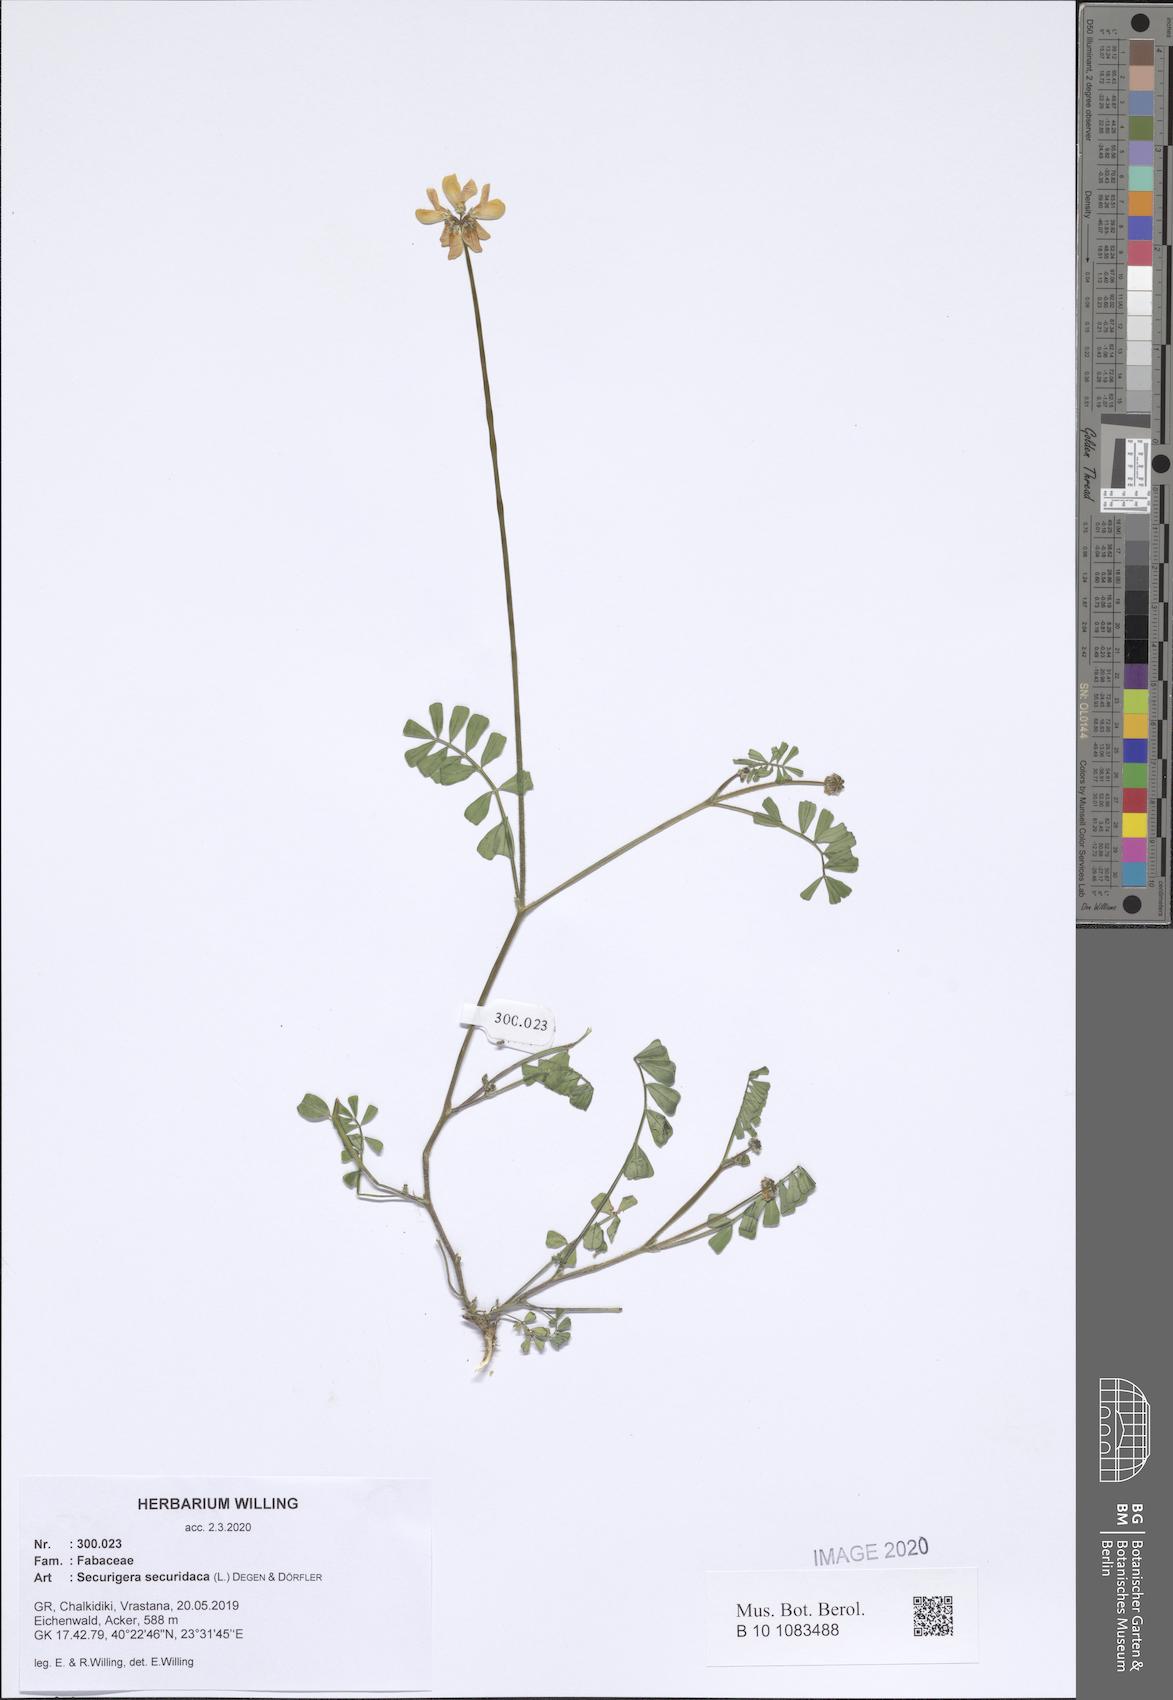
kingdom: Plantae
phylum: Tracheophyta
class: Magnoliopsida
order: Fabales
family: Fabaceae
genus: Coronilla
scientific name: Coronilla securidaca
